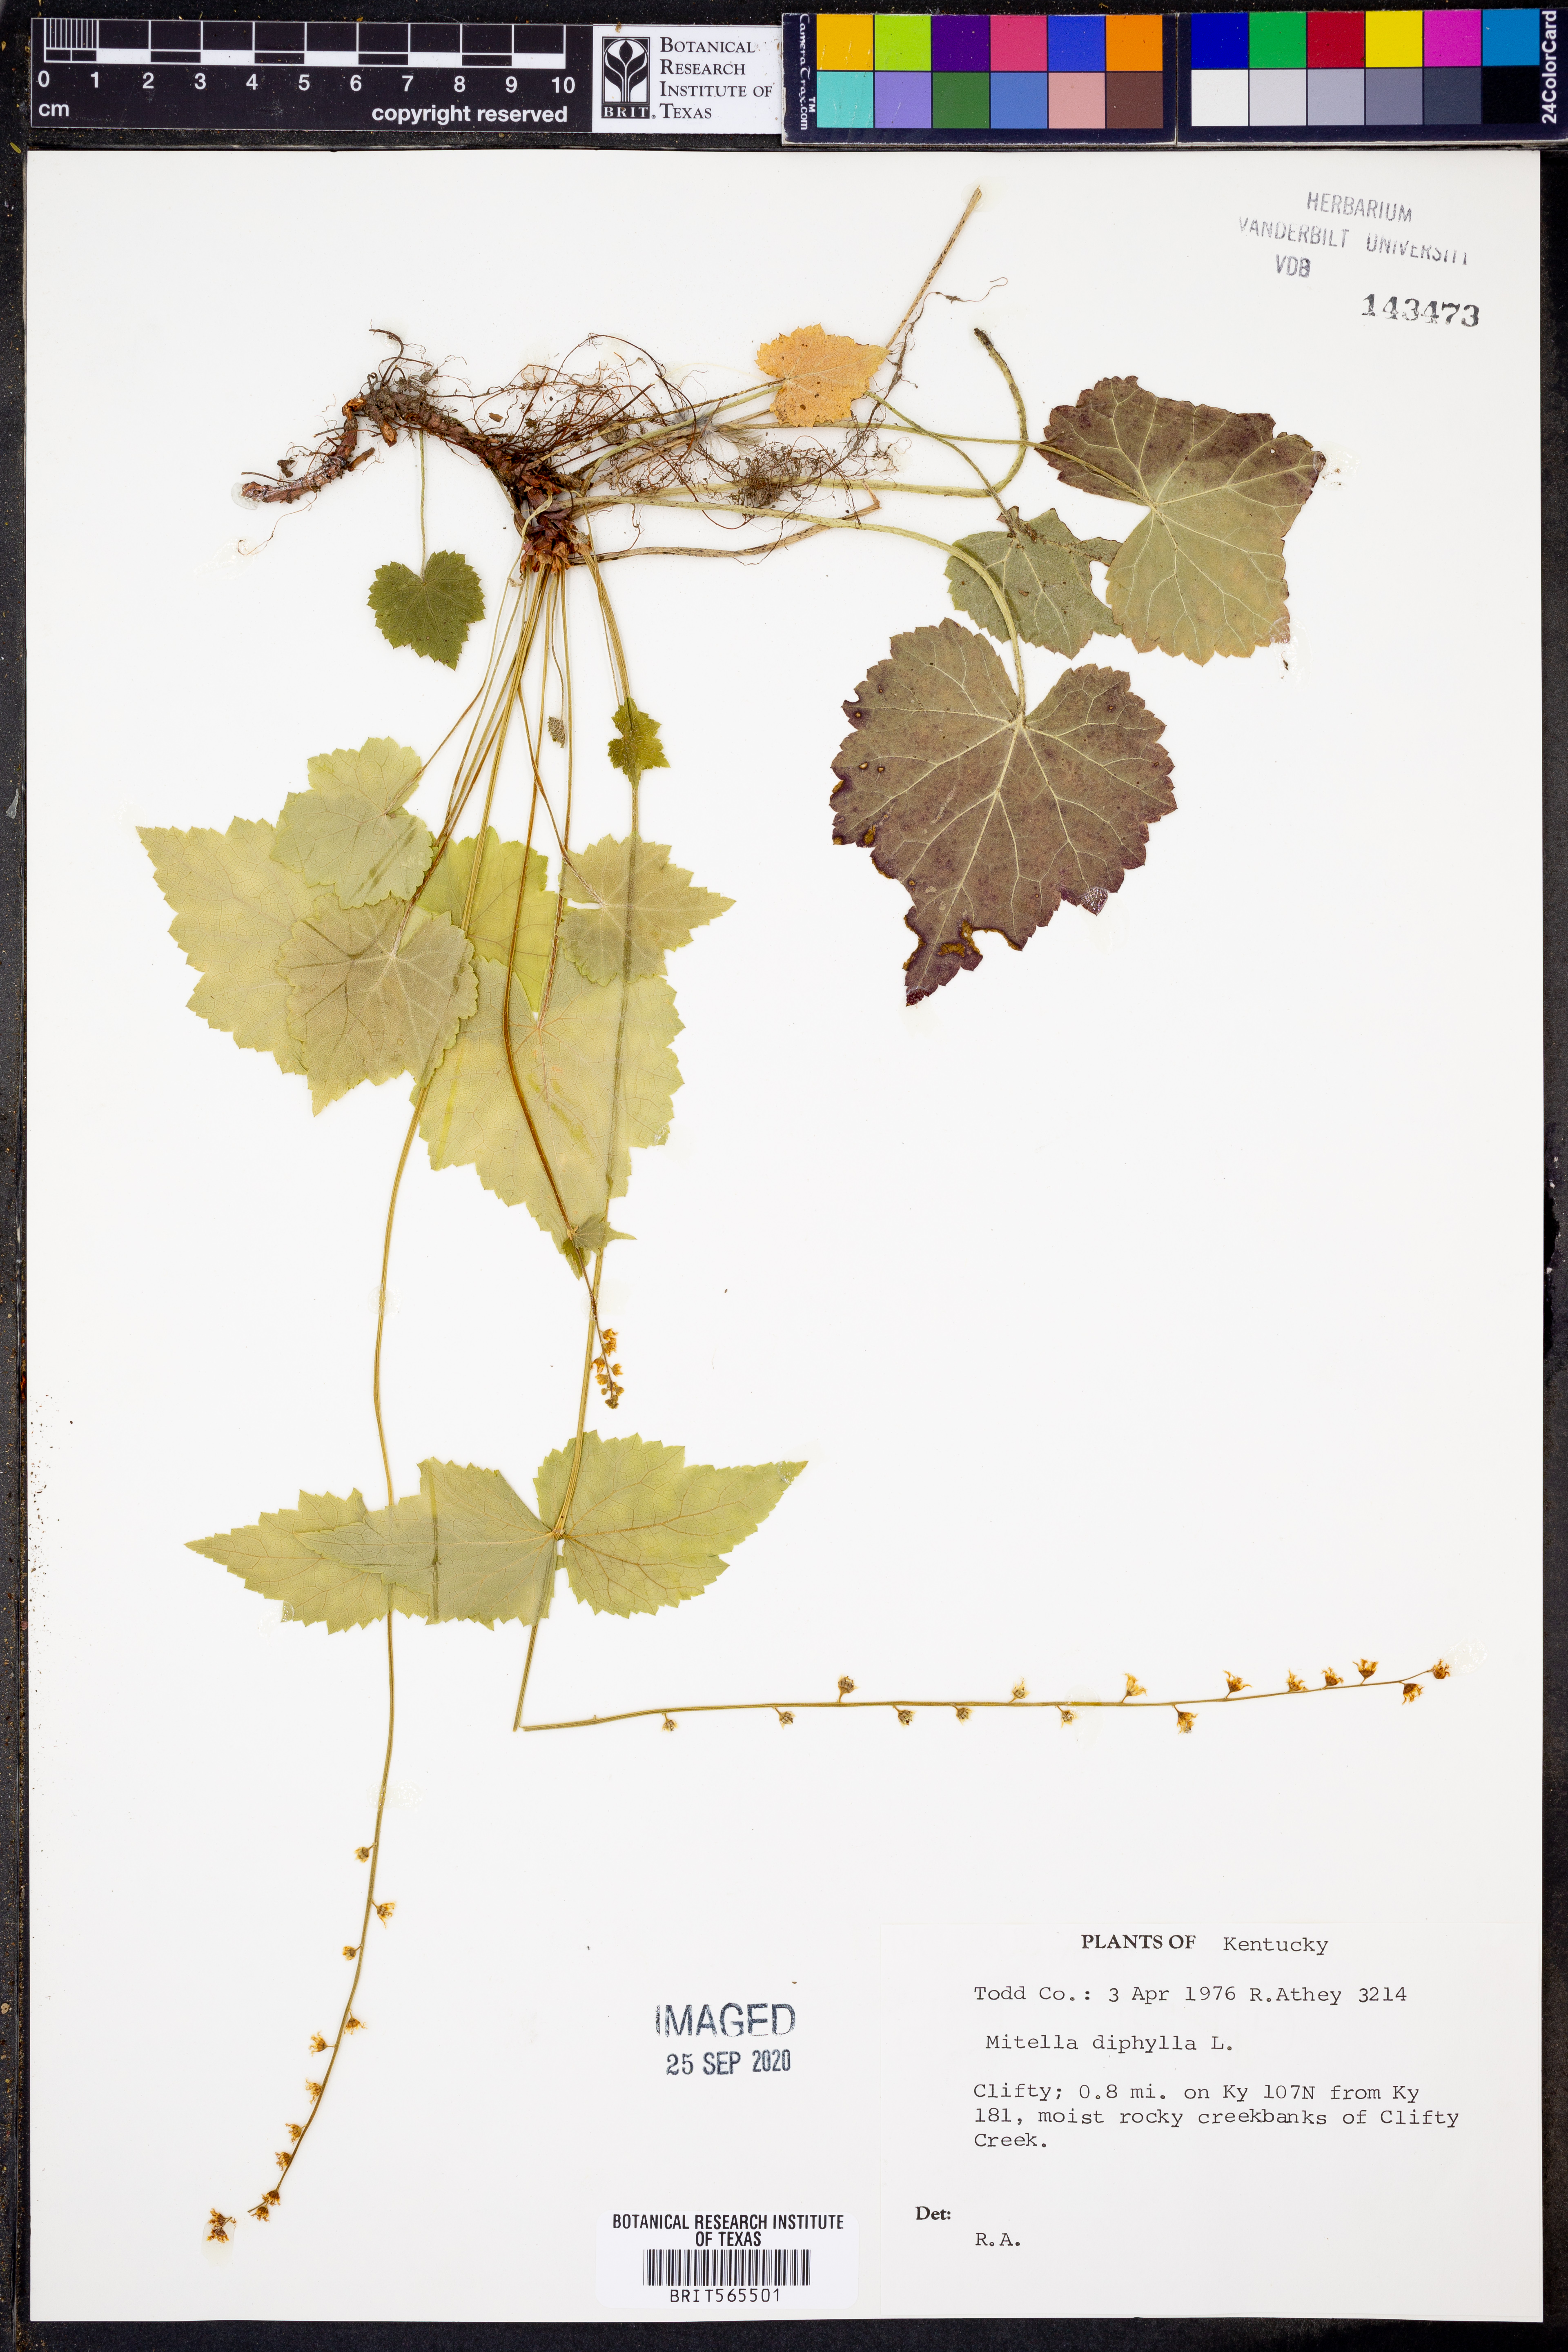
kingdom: Plantae
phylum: Tracheophyta
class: Magnoliopsida
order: Saxifragales
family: Saxifragaceae
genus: Mitella
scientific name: Mitella diphylla
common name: Coolwort
